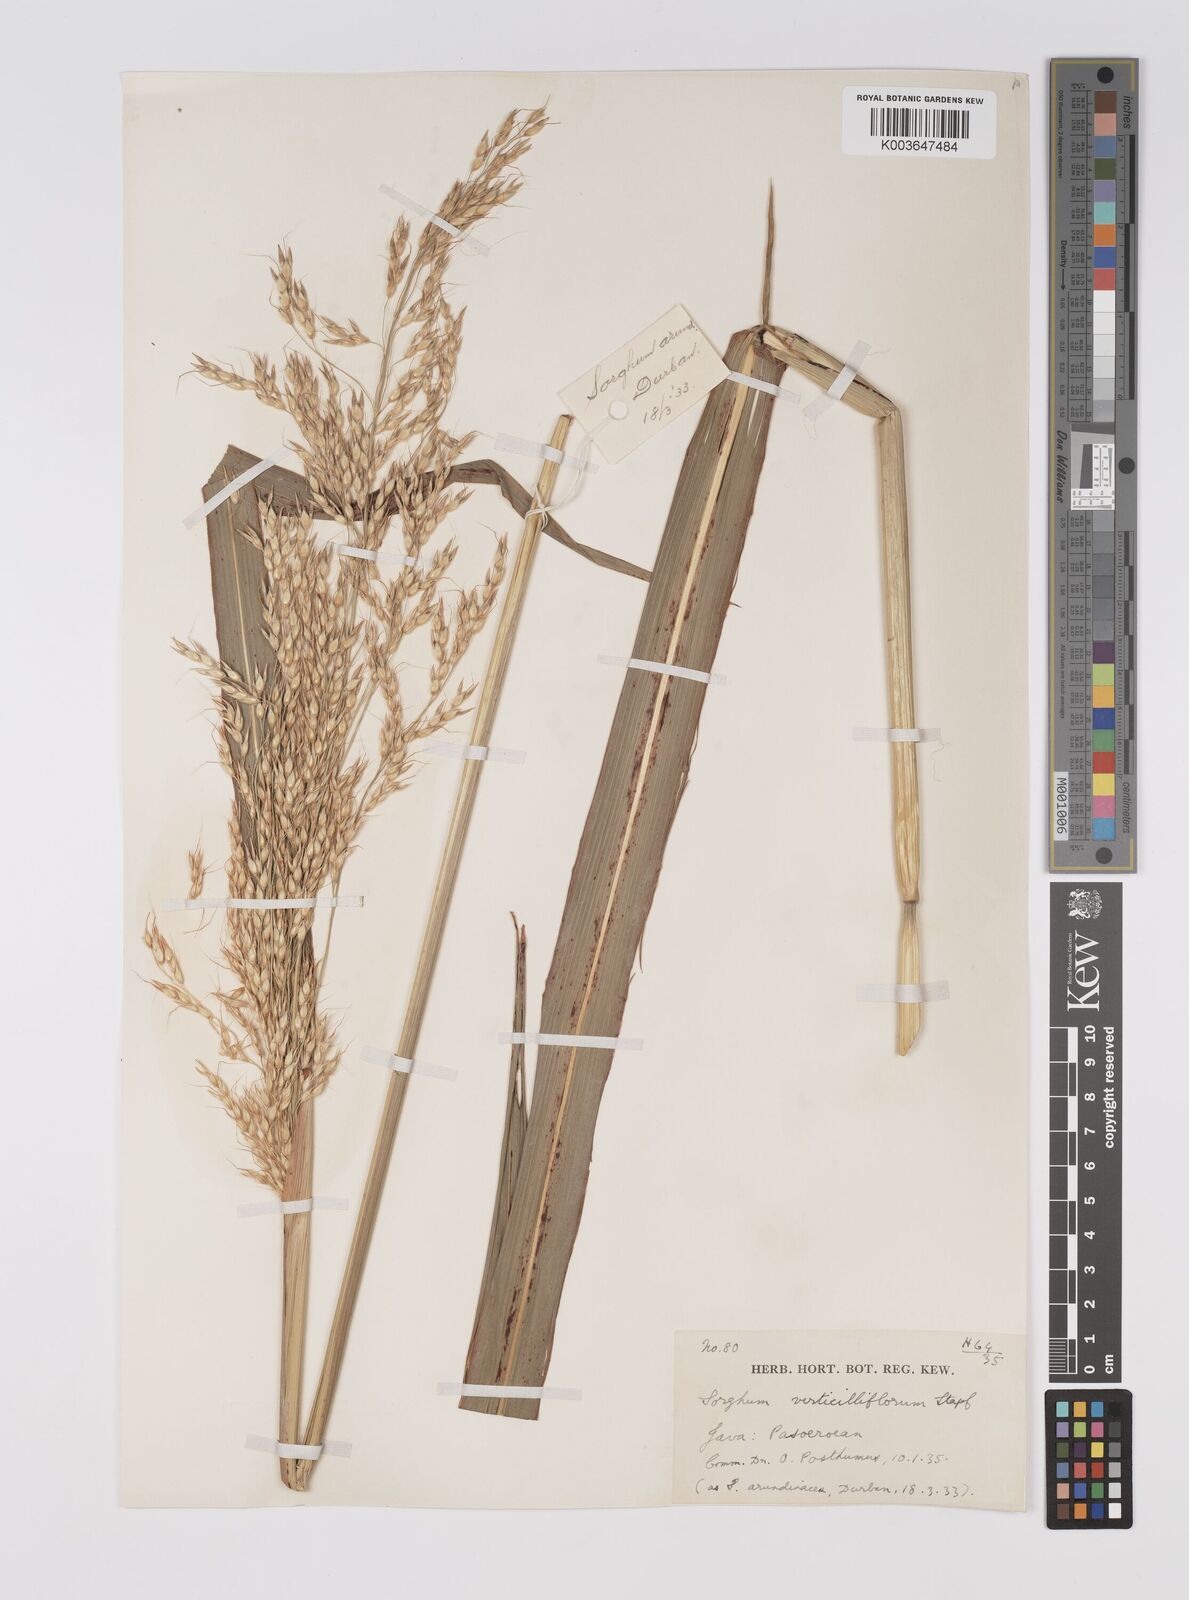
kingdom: Plantae
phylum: Tracheophyta
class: Liliopsida
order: Poales
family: Poaceae
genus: Sorghum
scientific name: Sorghum arundinaceum
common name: Sorghum
